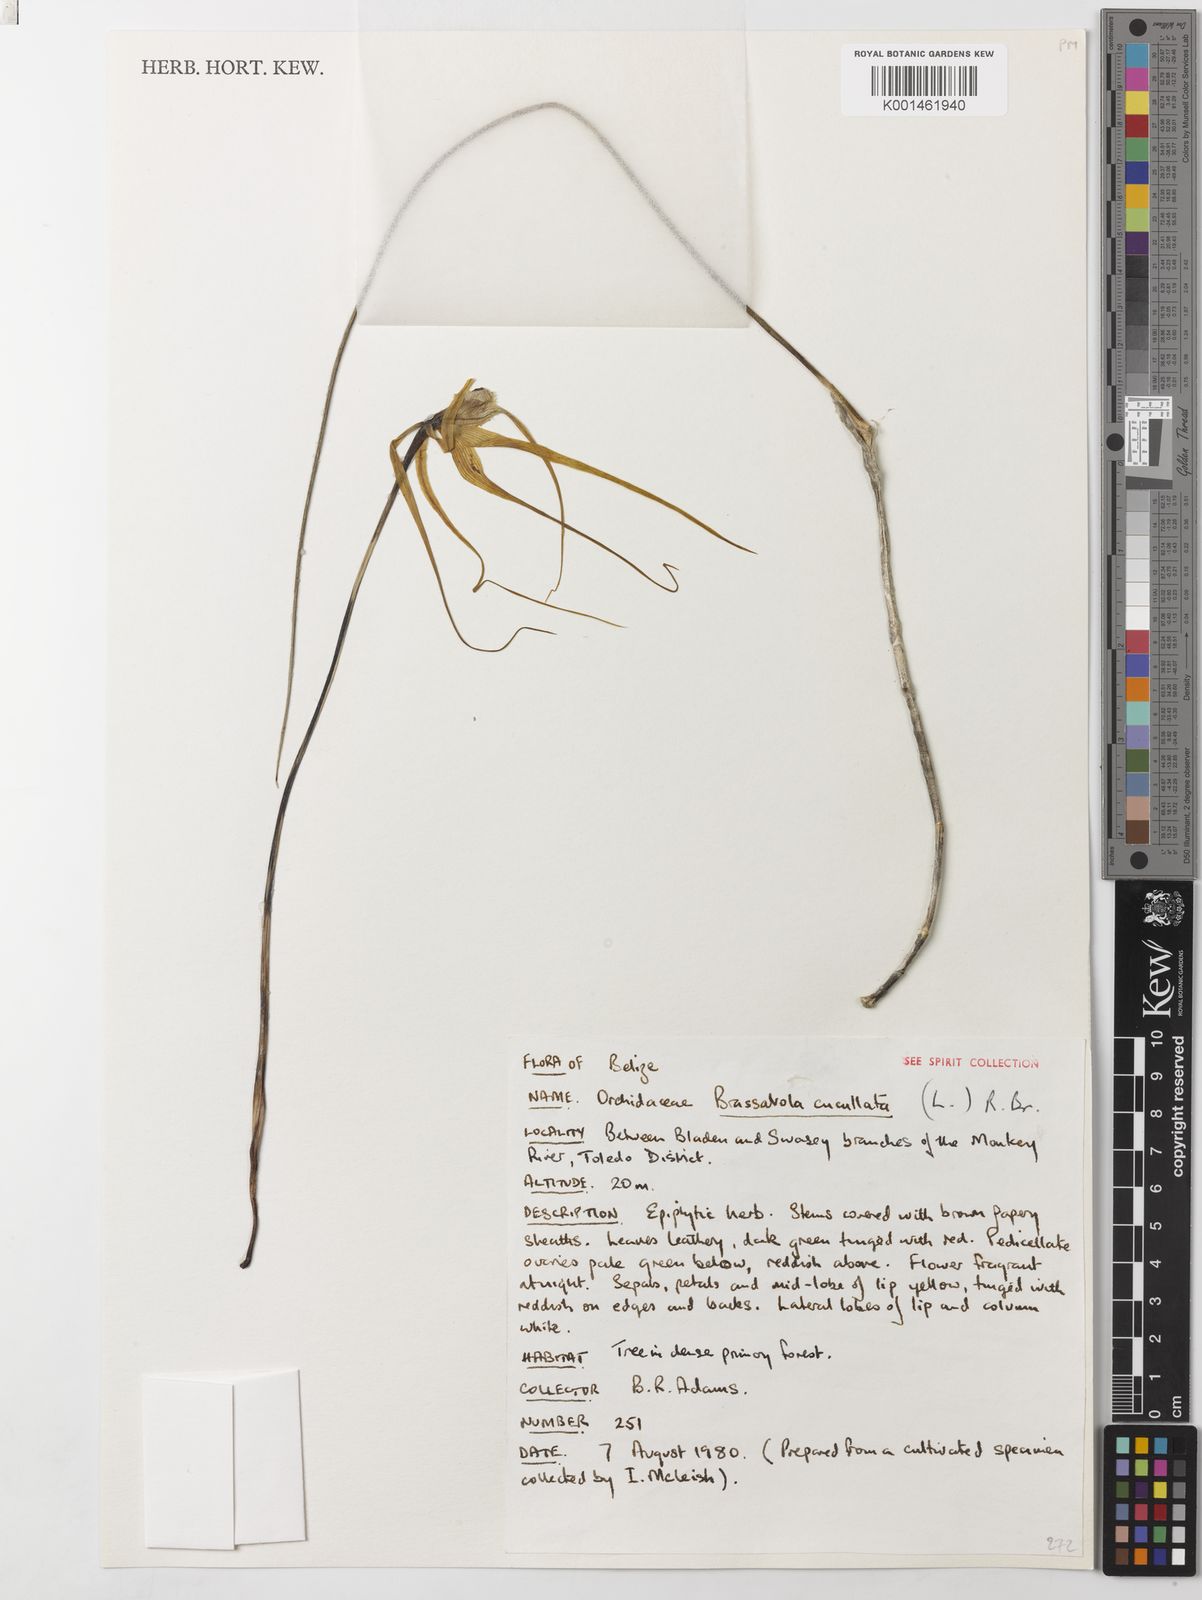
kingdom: Plantae
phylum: Tracheophyta
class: Liliopsida
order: Asparagales
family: Orchidaceae
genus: Brassavola
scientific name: Brassavola cucullata
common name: Daddy longlegs orchid
